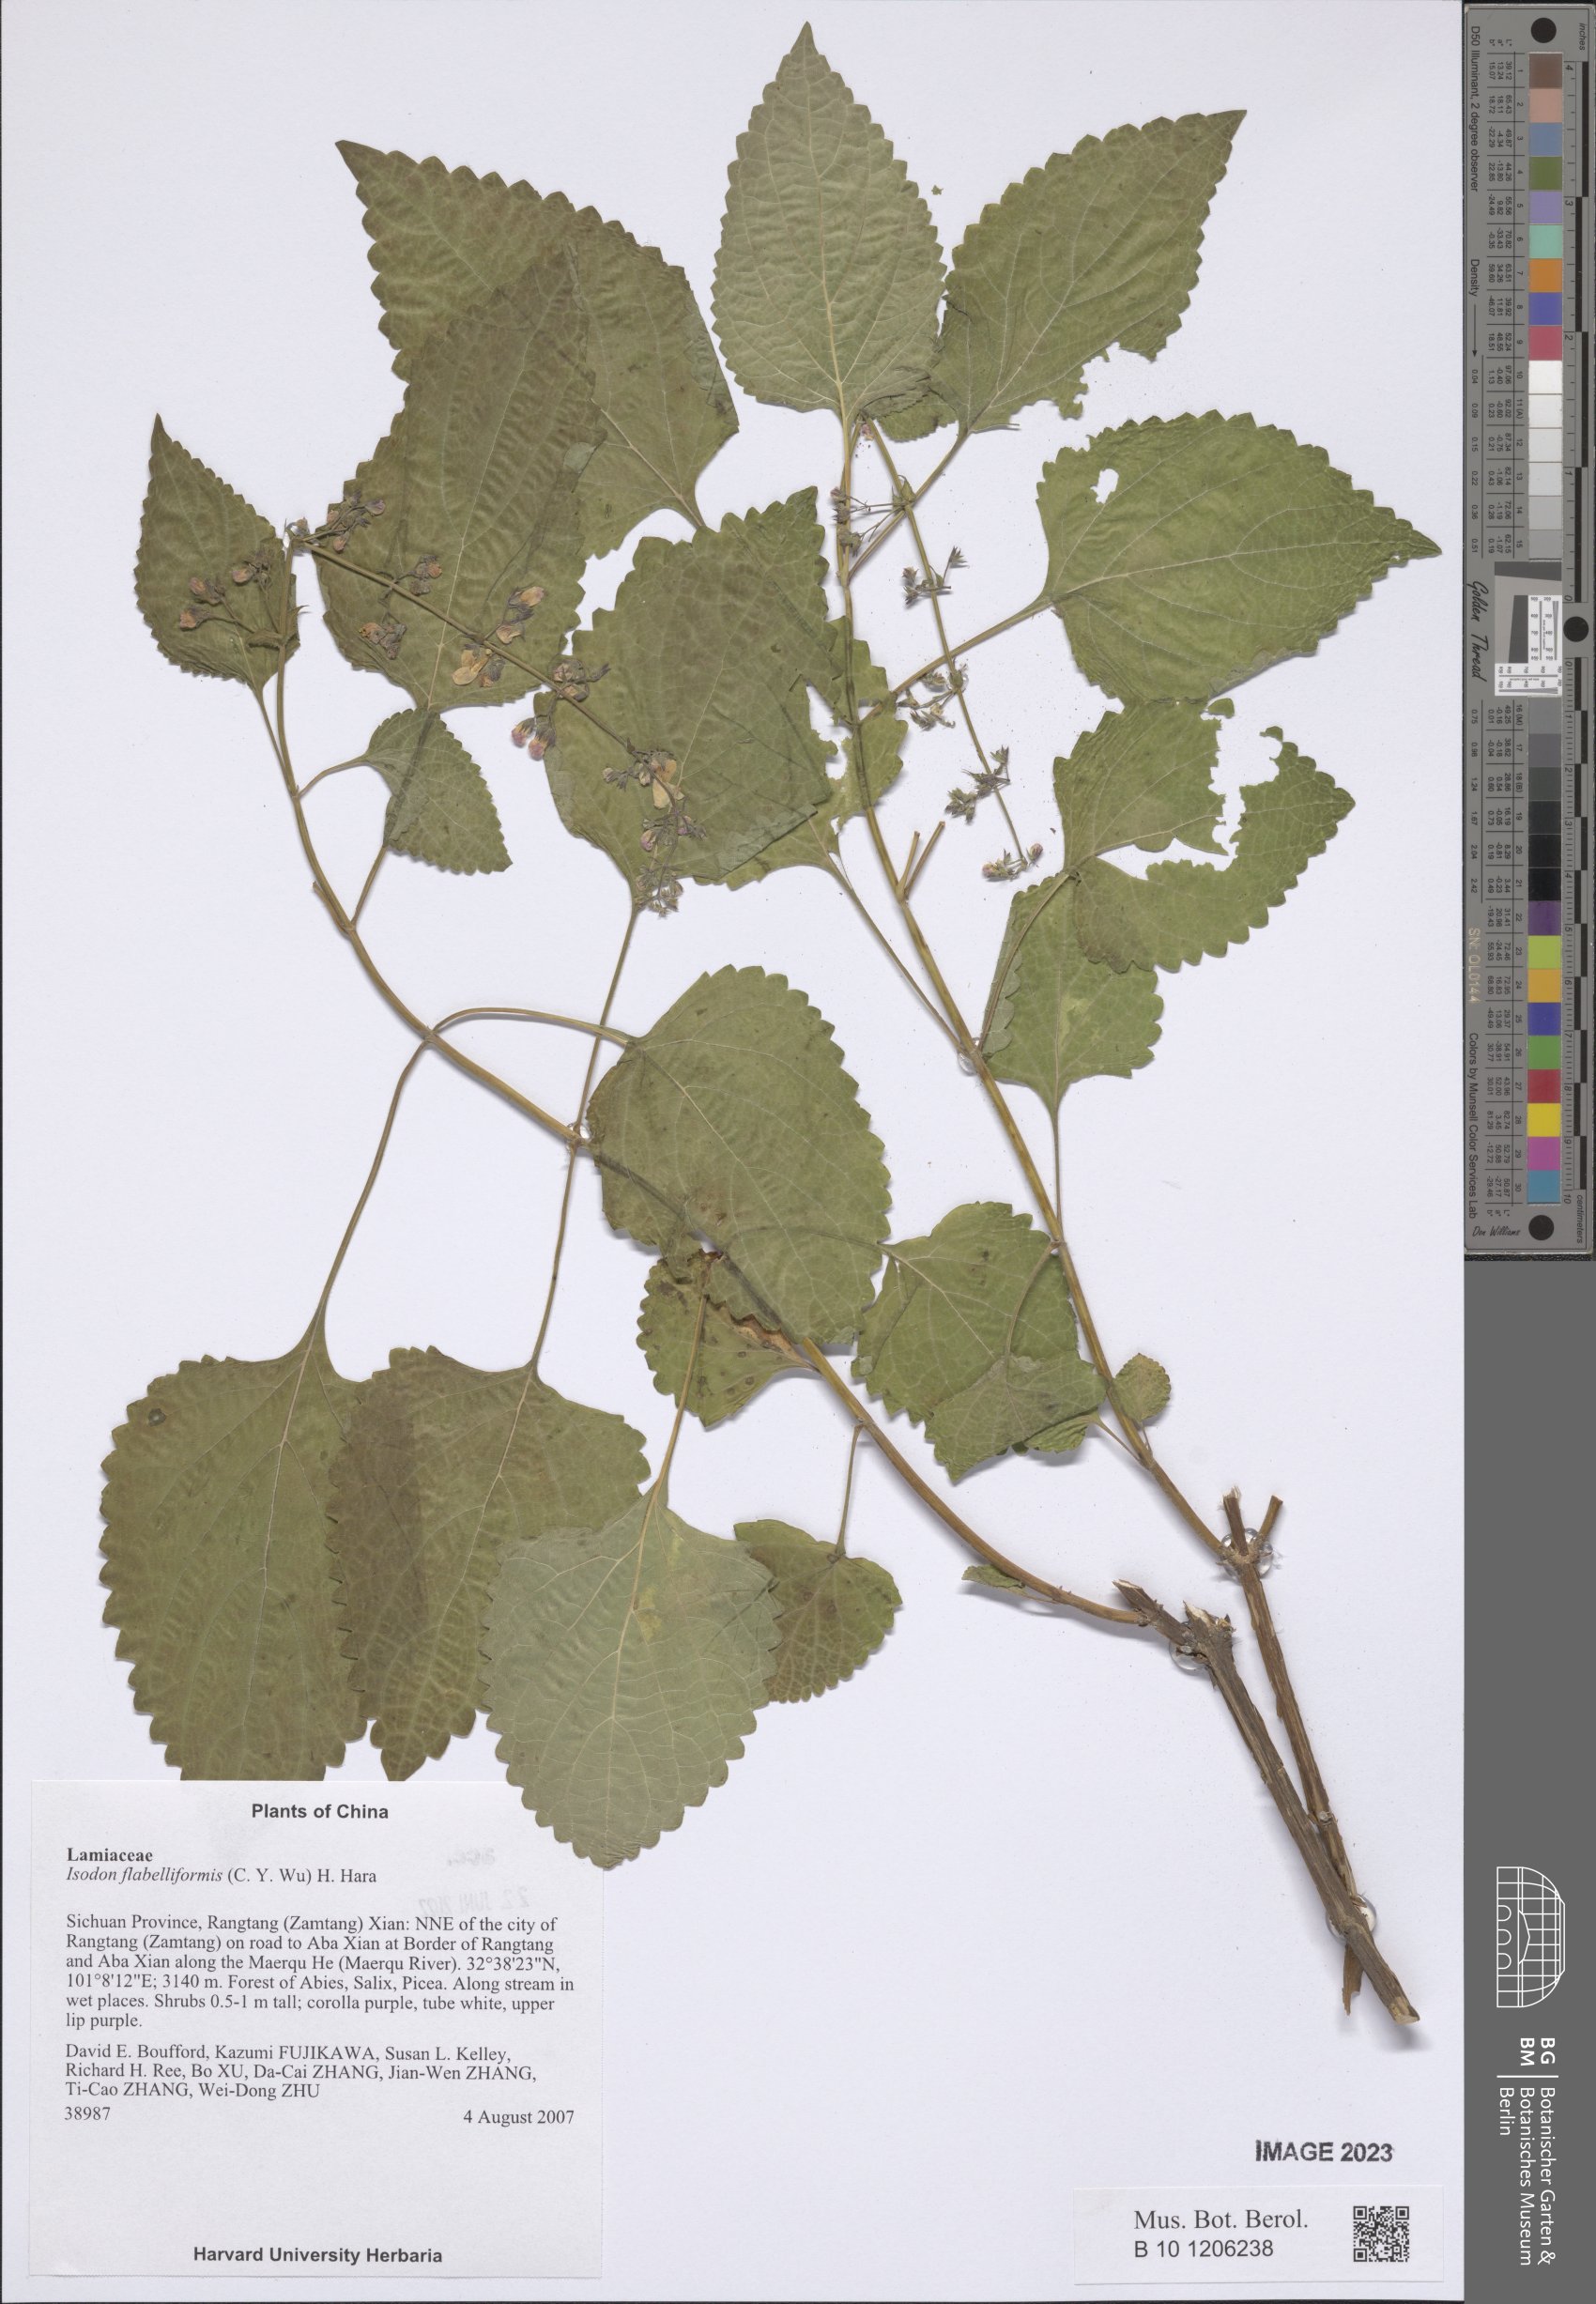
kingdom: Plantae
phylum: Tracheophyta
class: Magnoliopsida
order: Lamiales
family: Lamiaceae
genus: Isodon
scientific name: Isodon flabelliformis
